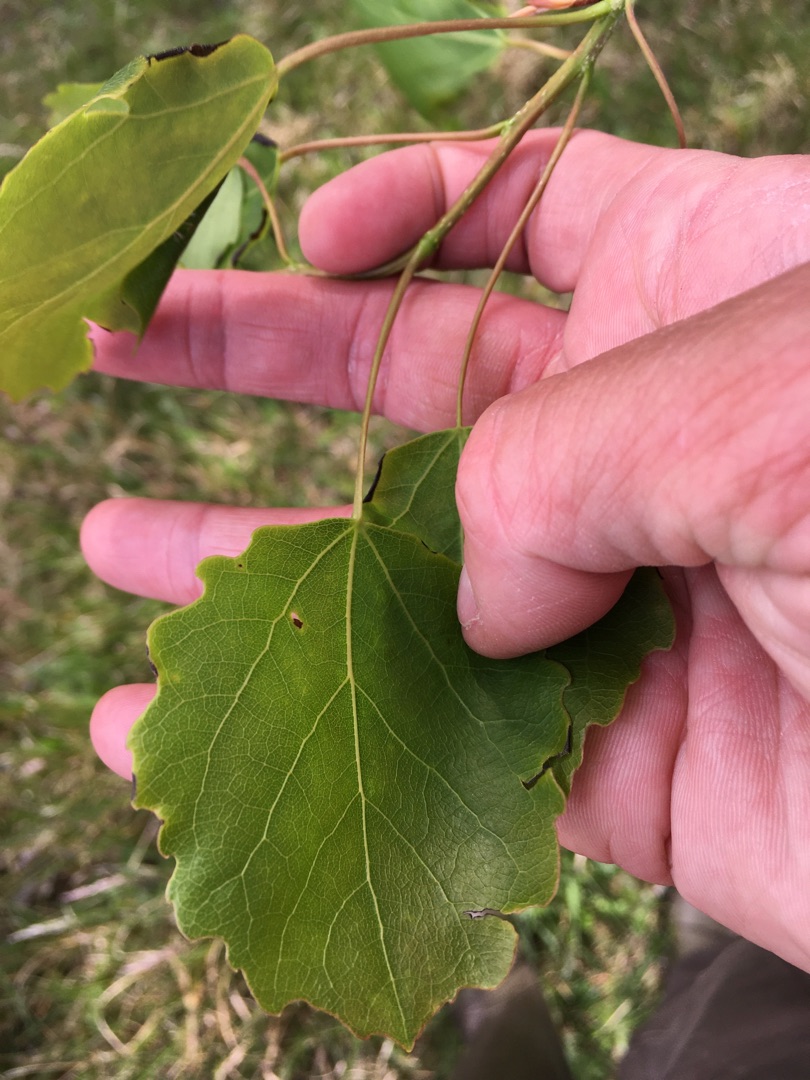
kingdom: Plantae
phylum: Tracheophyta
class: Magnoliopsida
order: Malpighiales
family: Salicaceae
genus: Populus
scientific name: Populus tremula
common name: Bævreasp
